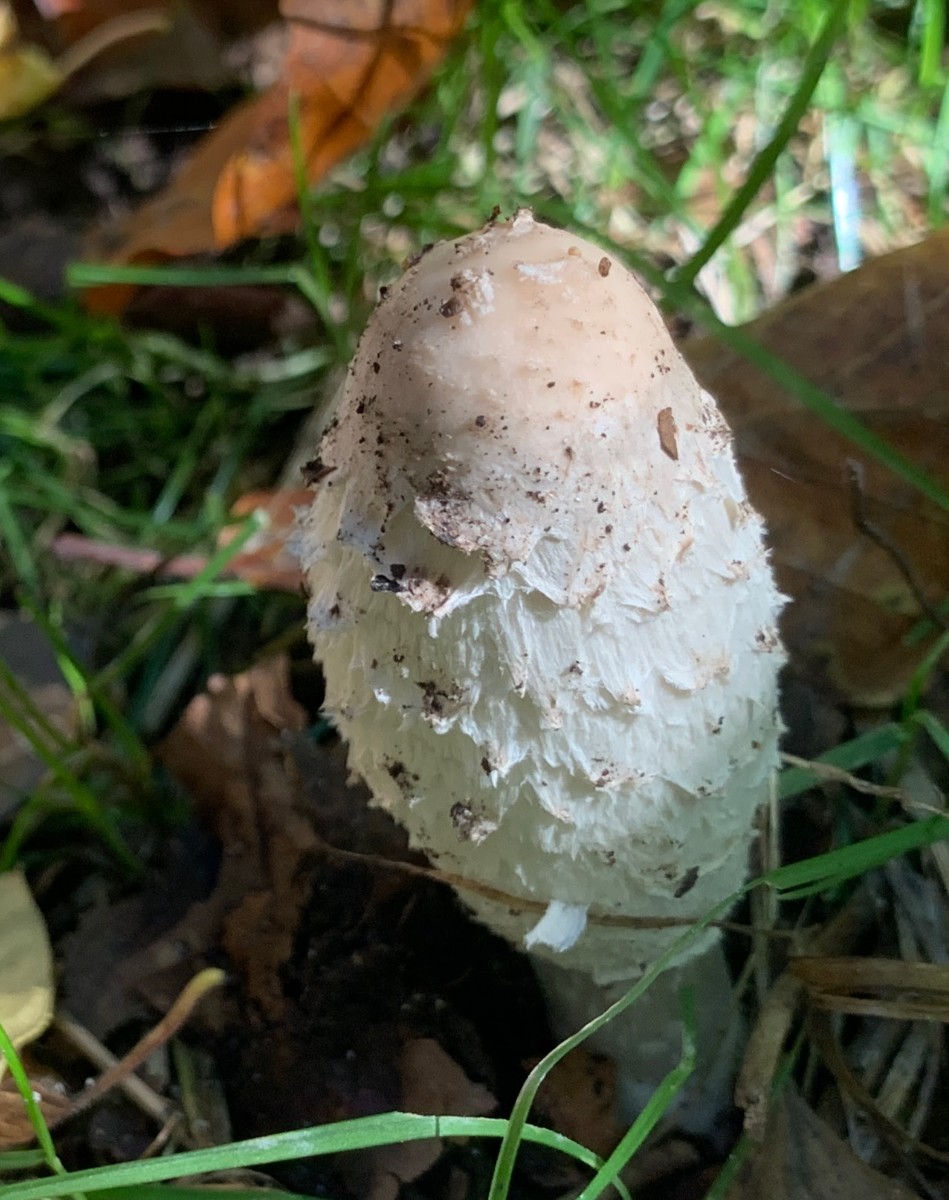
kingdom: Fungi
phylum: Basidiomycota
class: Agaricomycetes
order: Agaricales
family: Agaricaceae
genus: Coprinus
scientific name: Coprinus comatus
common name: stor parykhat
